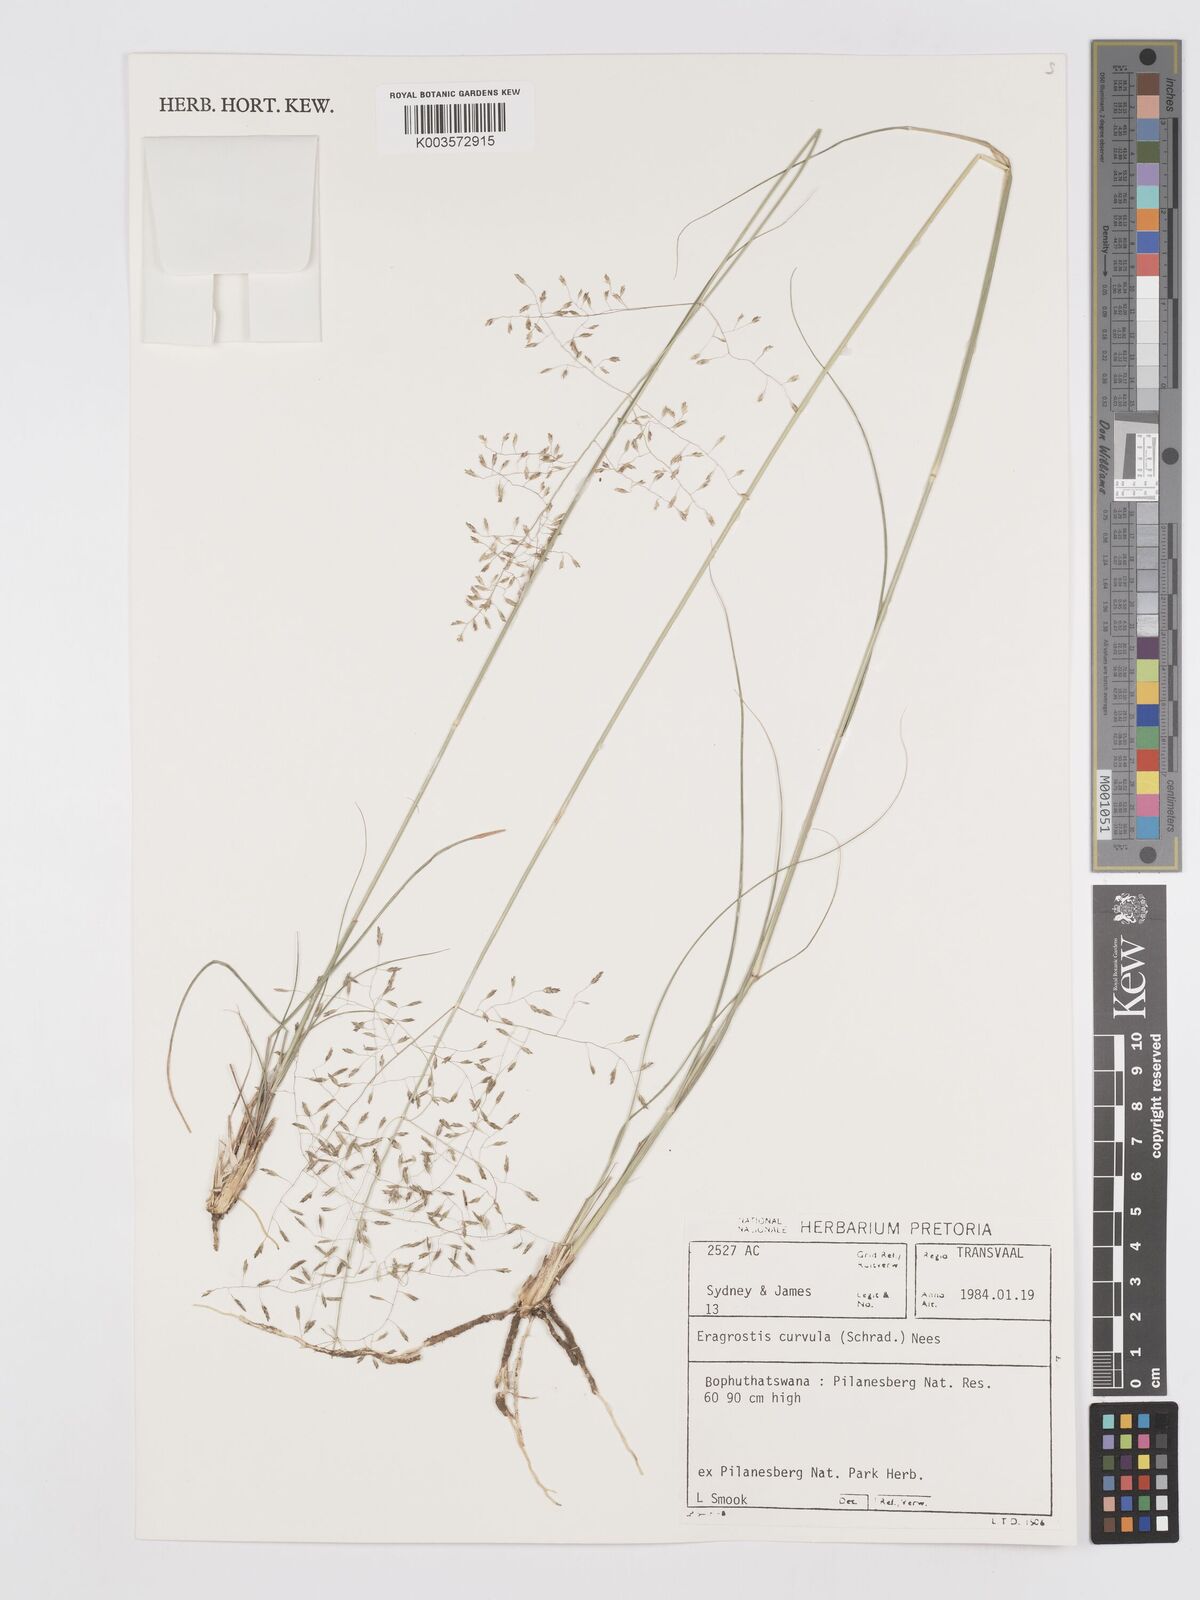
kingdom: Plantae
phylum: Tracheophyta
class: Liliopsida
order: Poales
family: Poaceae
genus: Eragrostis
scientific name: Eragrostis curvula
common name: African love-grass
